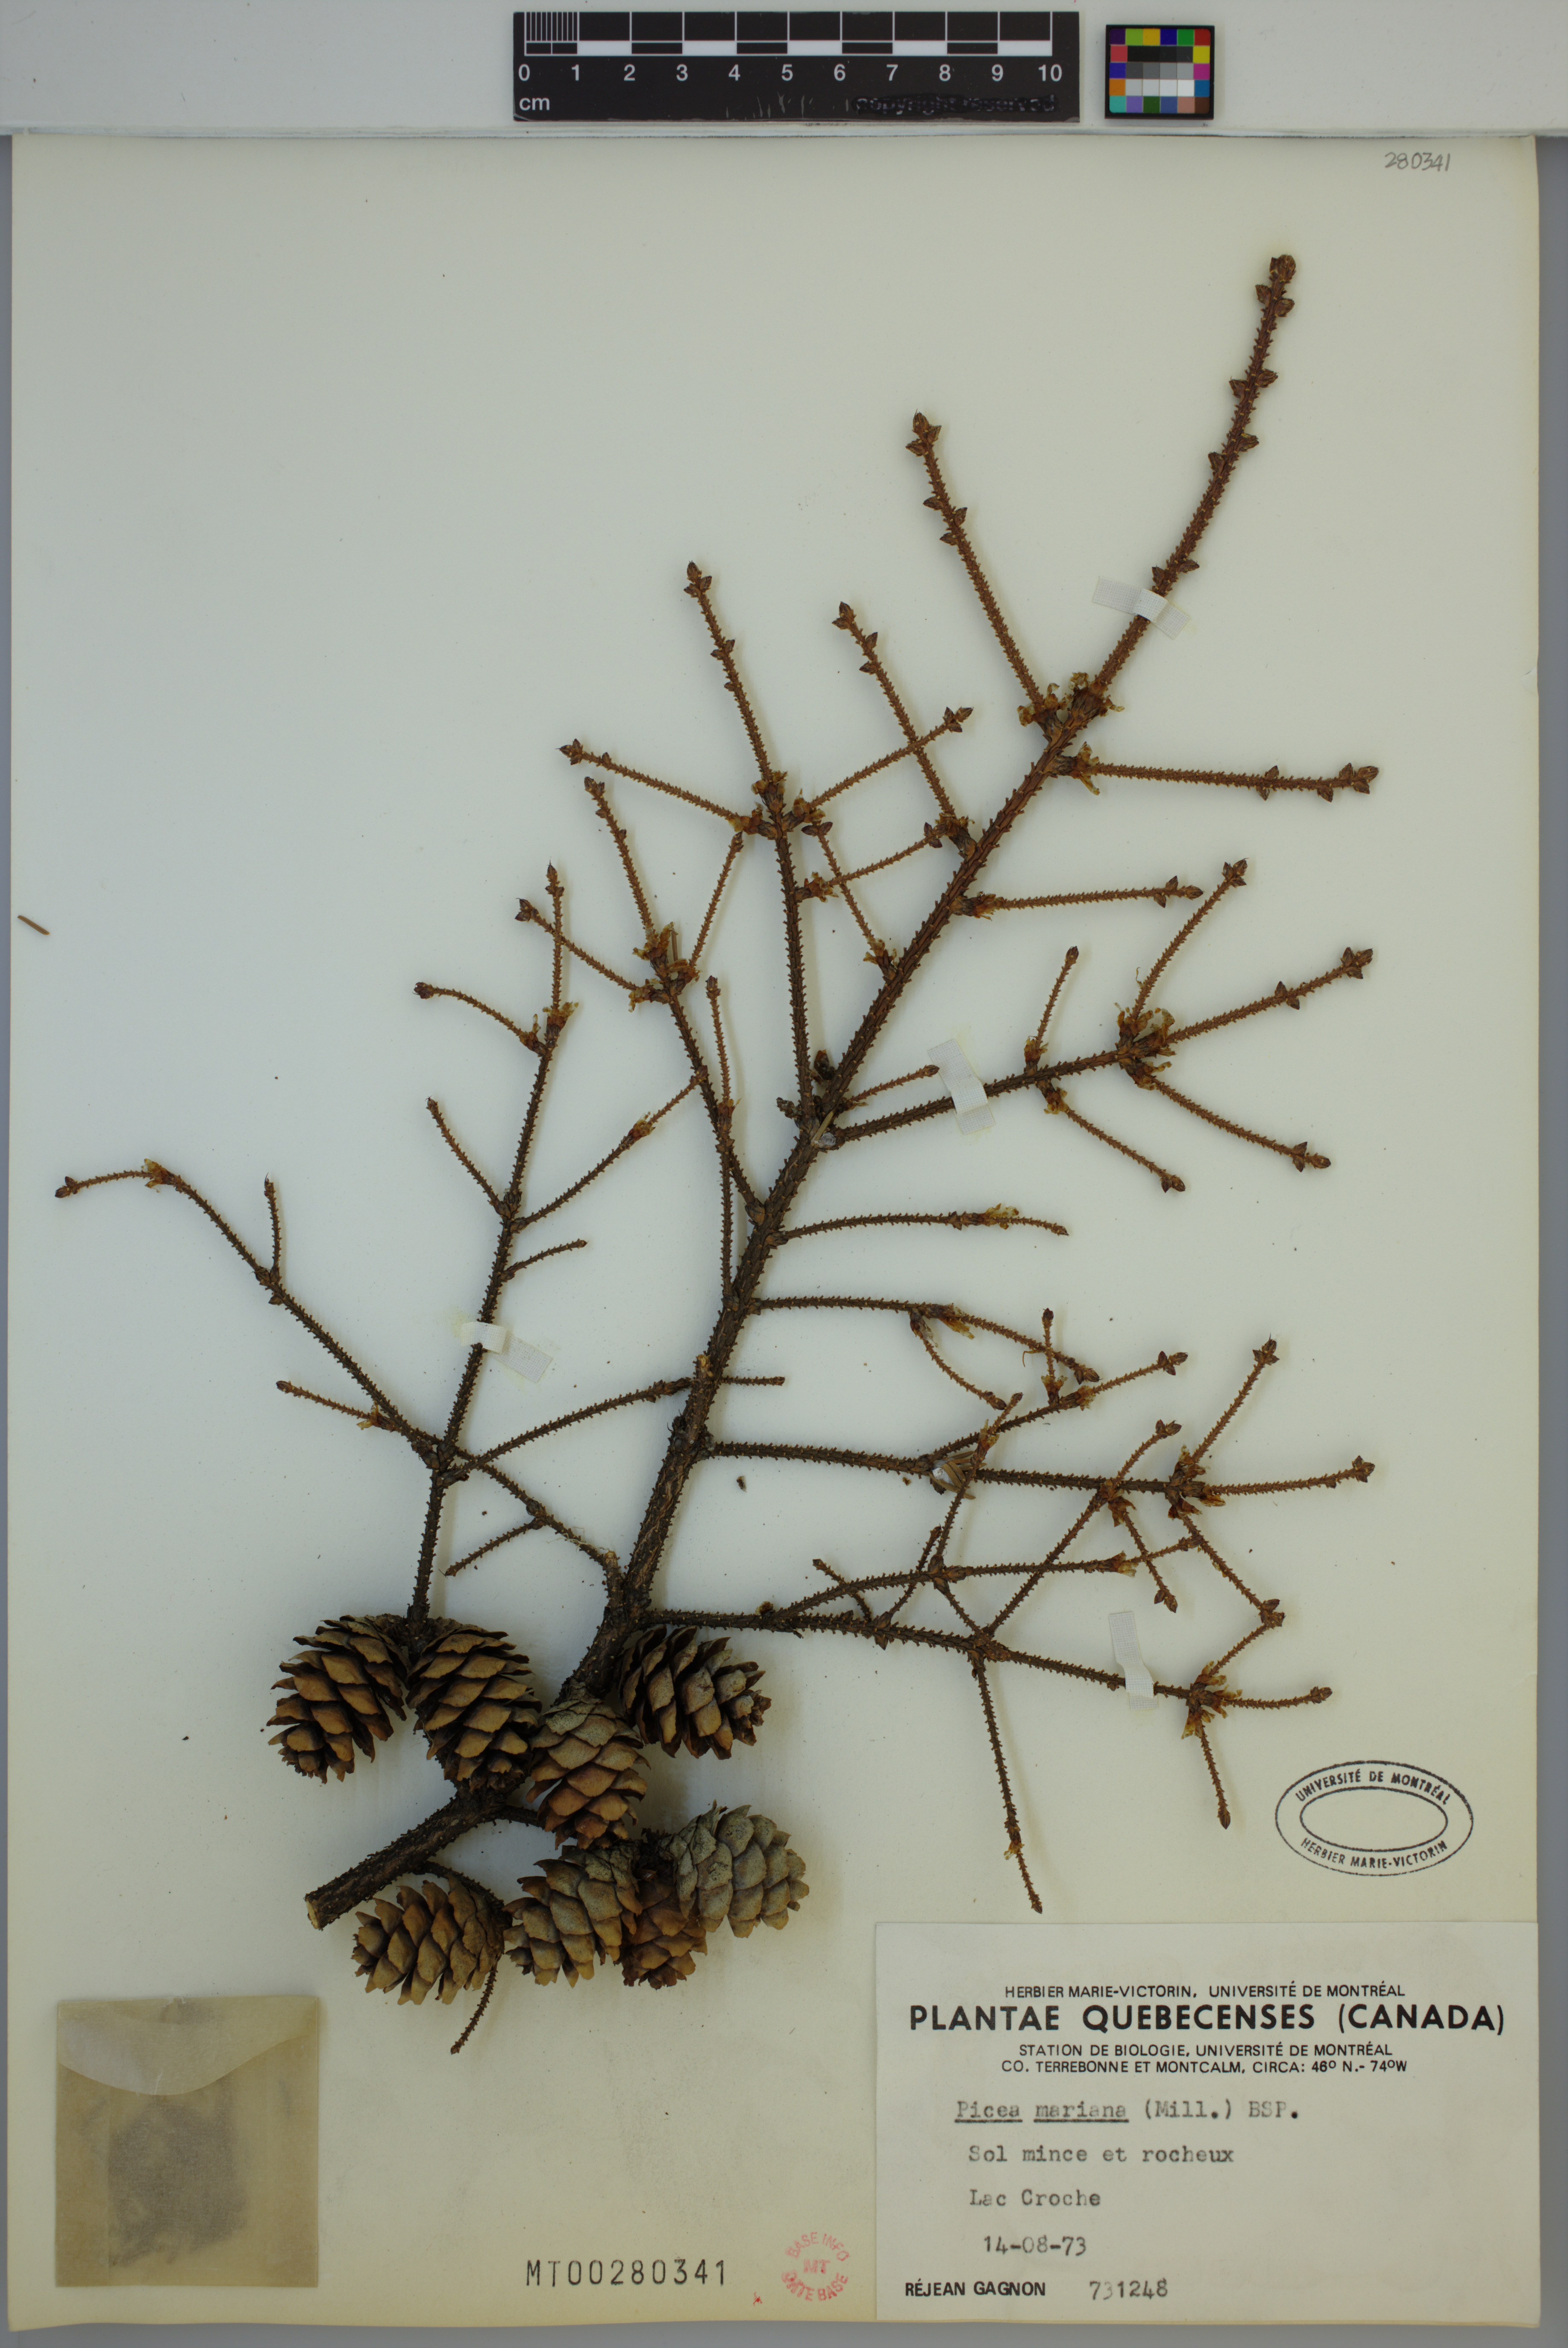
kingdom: Plantae
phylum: Tracheophyta
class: Pinopsida
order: Pinales
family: Pinaceae
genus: Picea
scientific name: Picea mariana
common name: Black spruce
